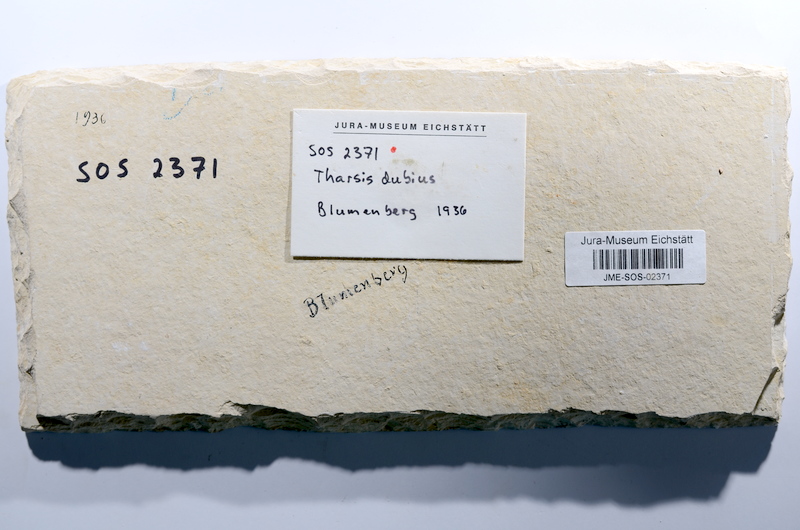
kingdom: Animalia
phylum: Chordata
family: Ascalaboidae
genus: Tharsis
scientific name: Tharsis dubius
